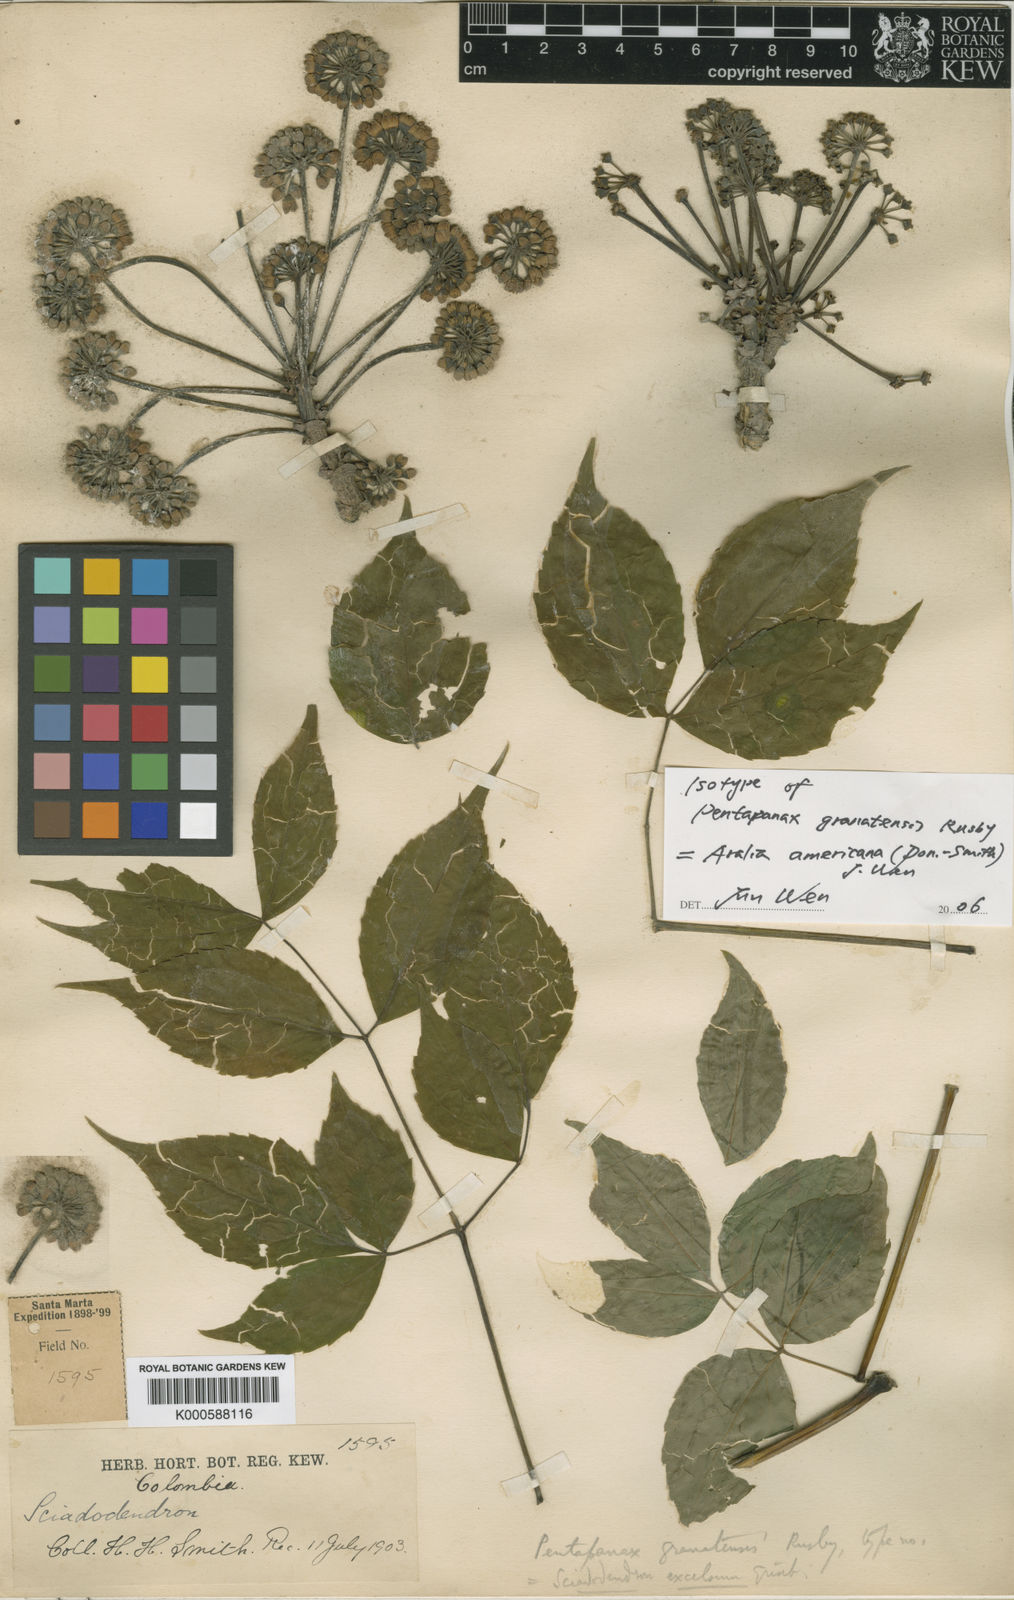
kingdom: Plantae
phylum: Tracheophyta
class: Magnoliopsida
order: Apiales
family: Araliaceae
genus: Aralia
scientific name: Aralia excelsa
